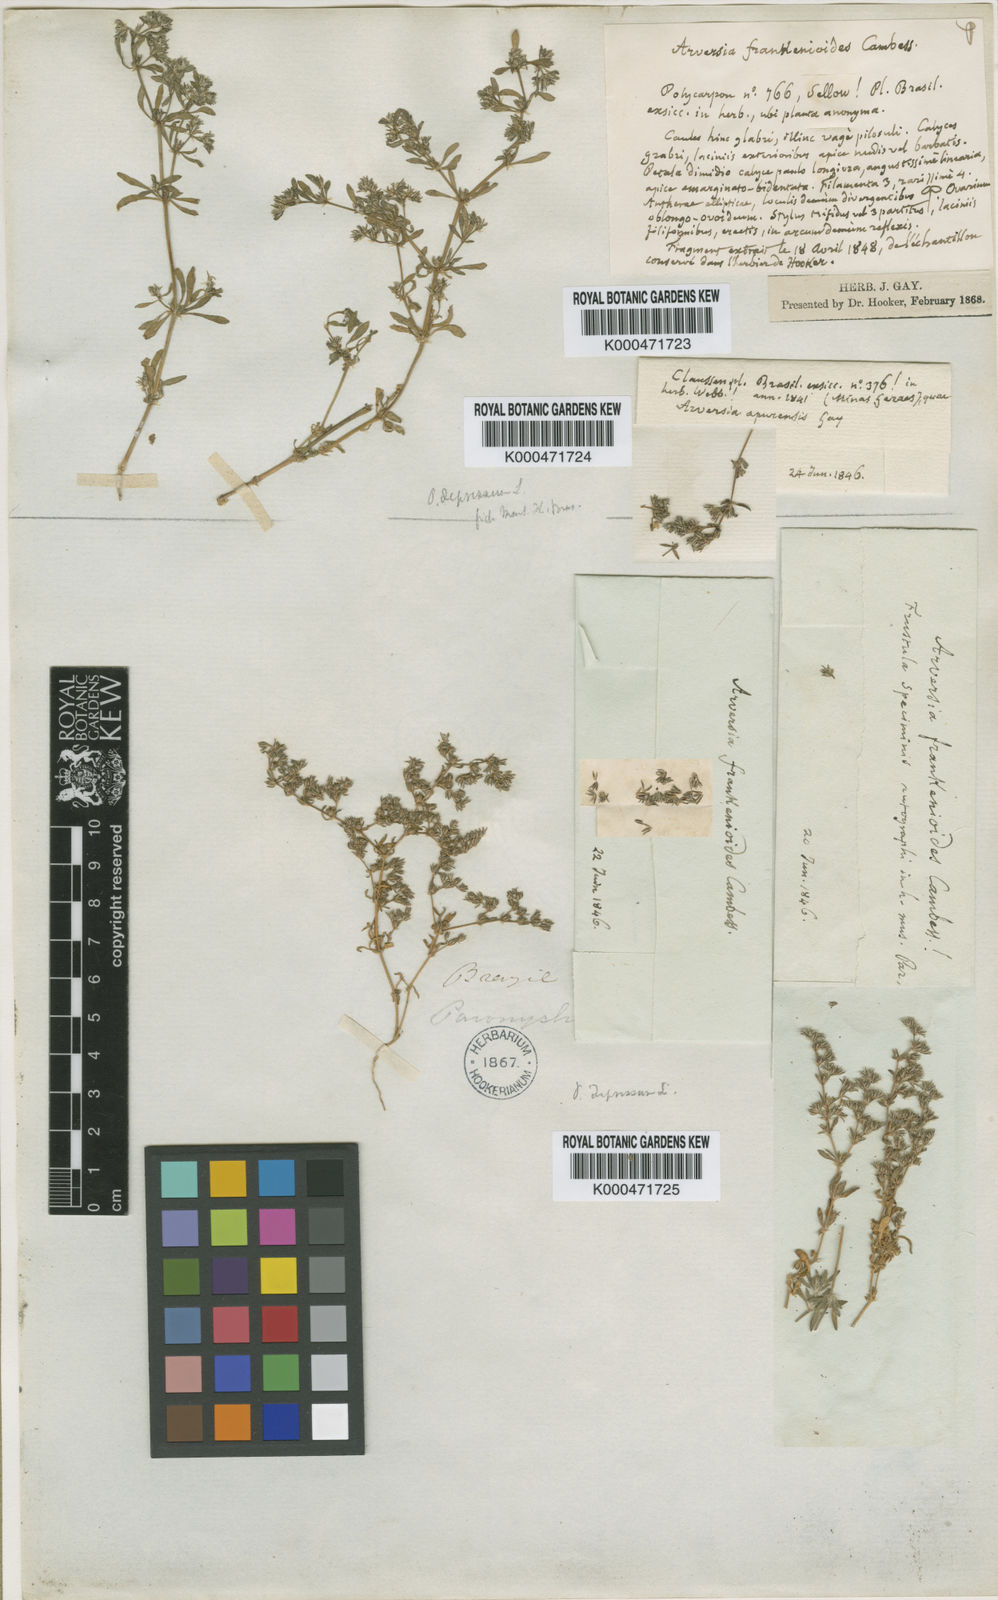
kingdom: Plantae
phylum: Tracheophyta
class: Magnoliopsida
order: Caryophyllales
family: Caryophyllaceae
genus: Polycarpon
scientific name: Polycarpon
